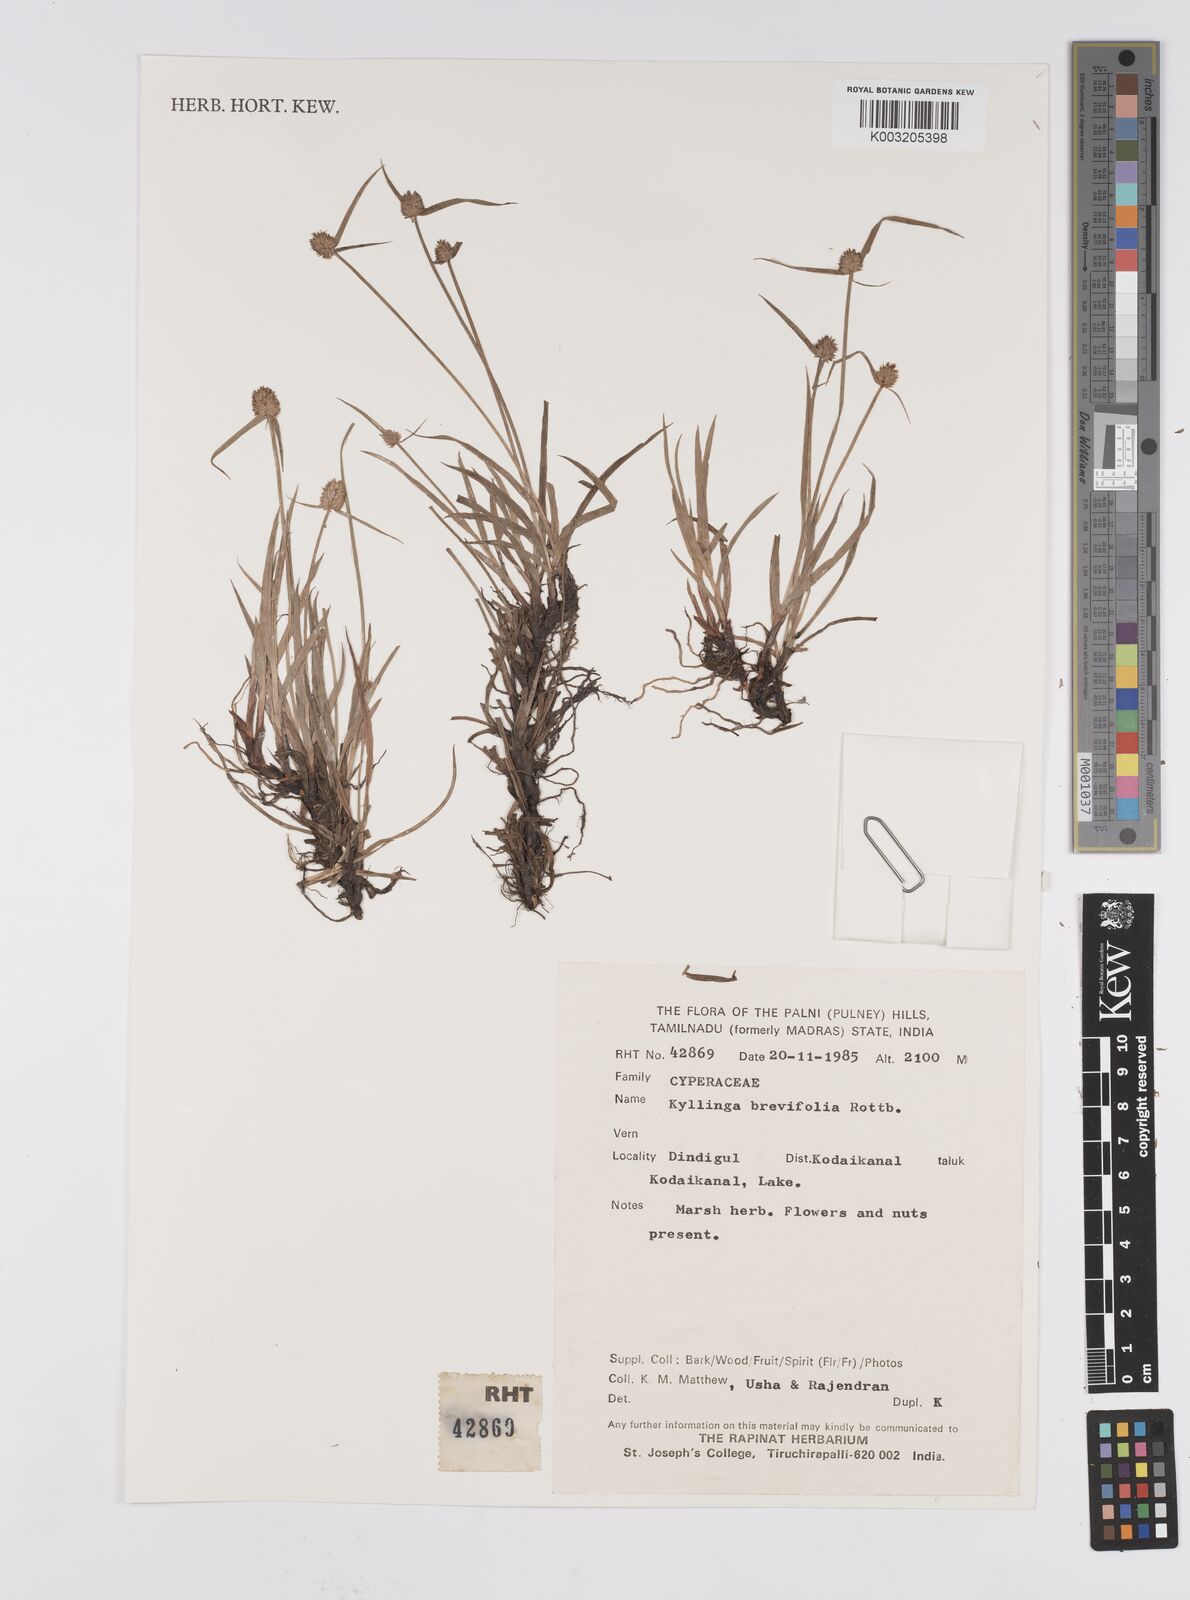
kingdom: Plantae
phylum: Tracheophyta
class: Liliopsida
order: Poales
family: Cyperaceae
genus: Cyperus
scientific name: Cyperus brevifolius
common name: Globe kyllinga
